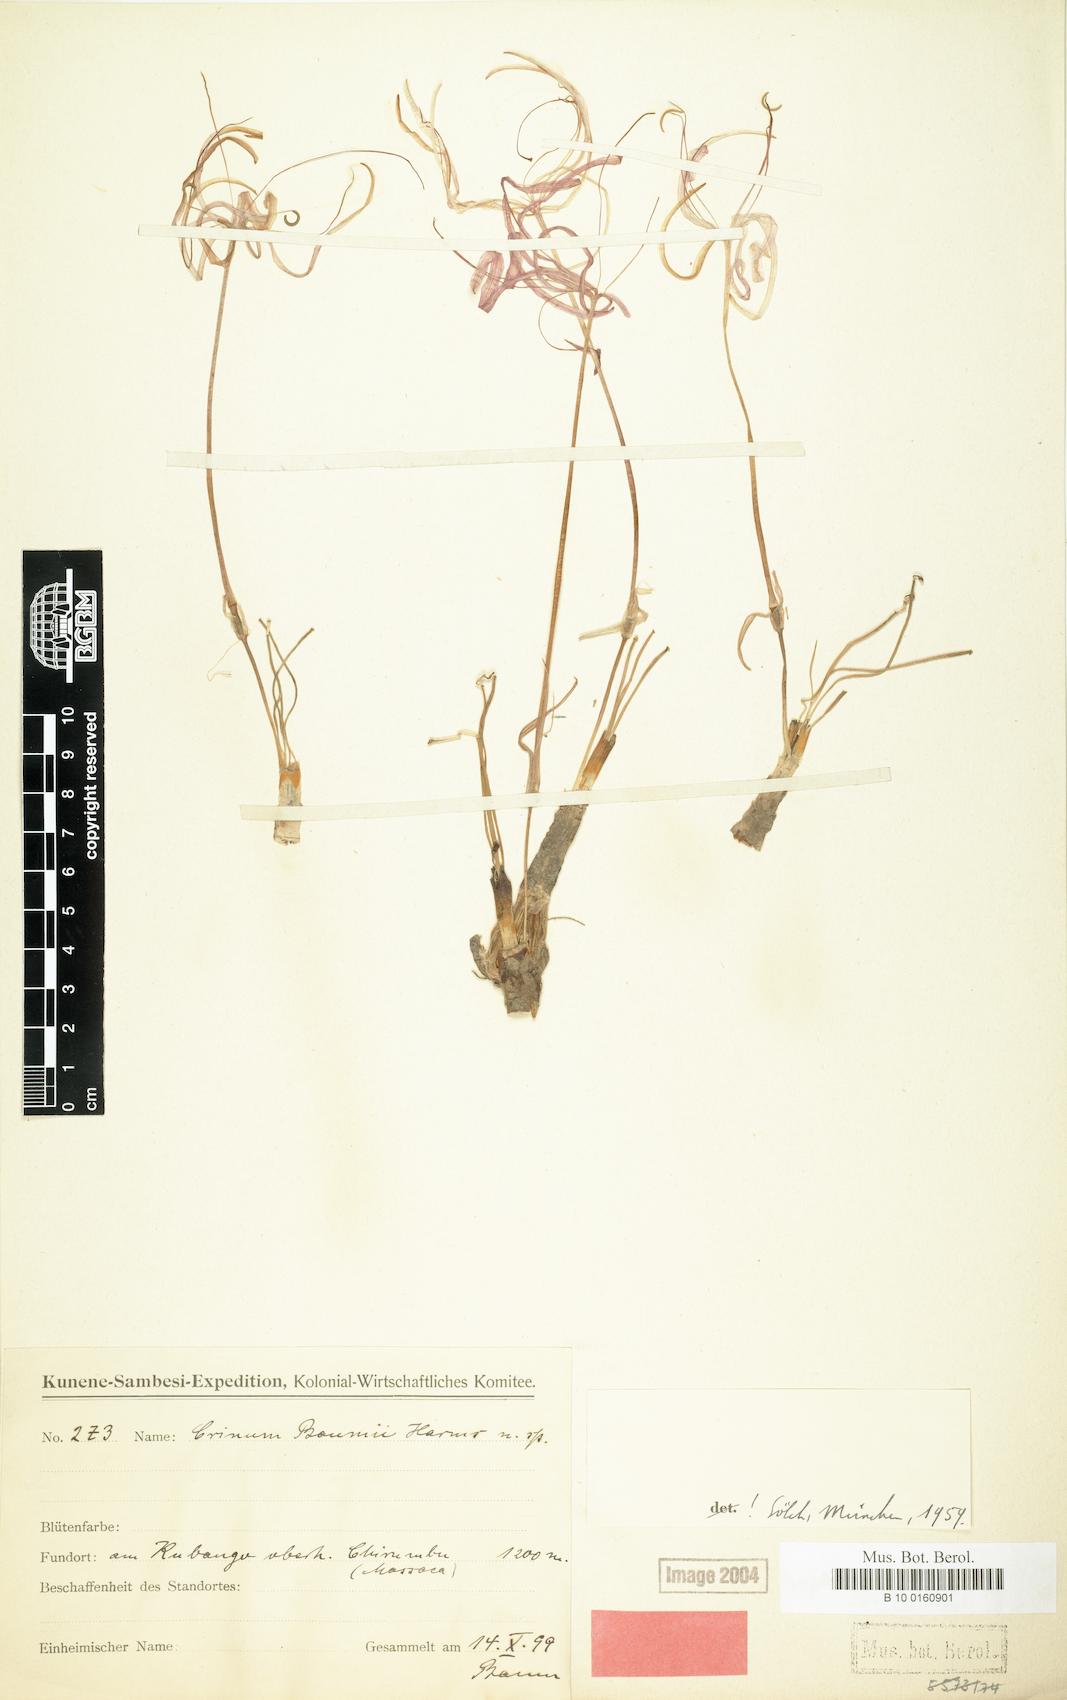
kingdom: Plantae
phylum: Tracheophyta
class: Liliopsida
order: Asparagales
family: Amaryllidaceae
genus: Ammocharis
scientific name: Ammocharis baumii
